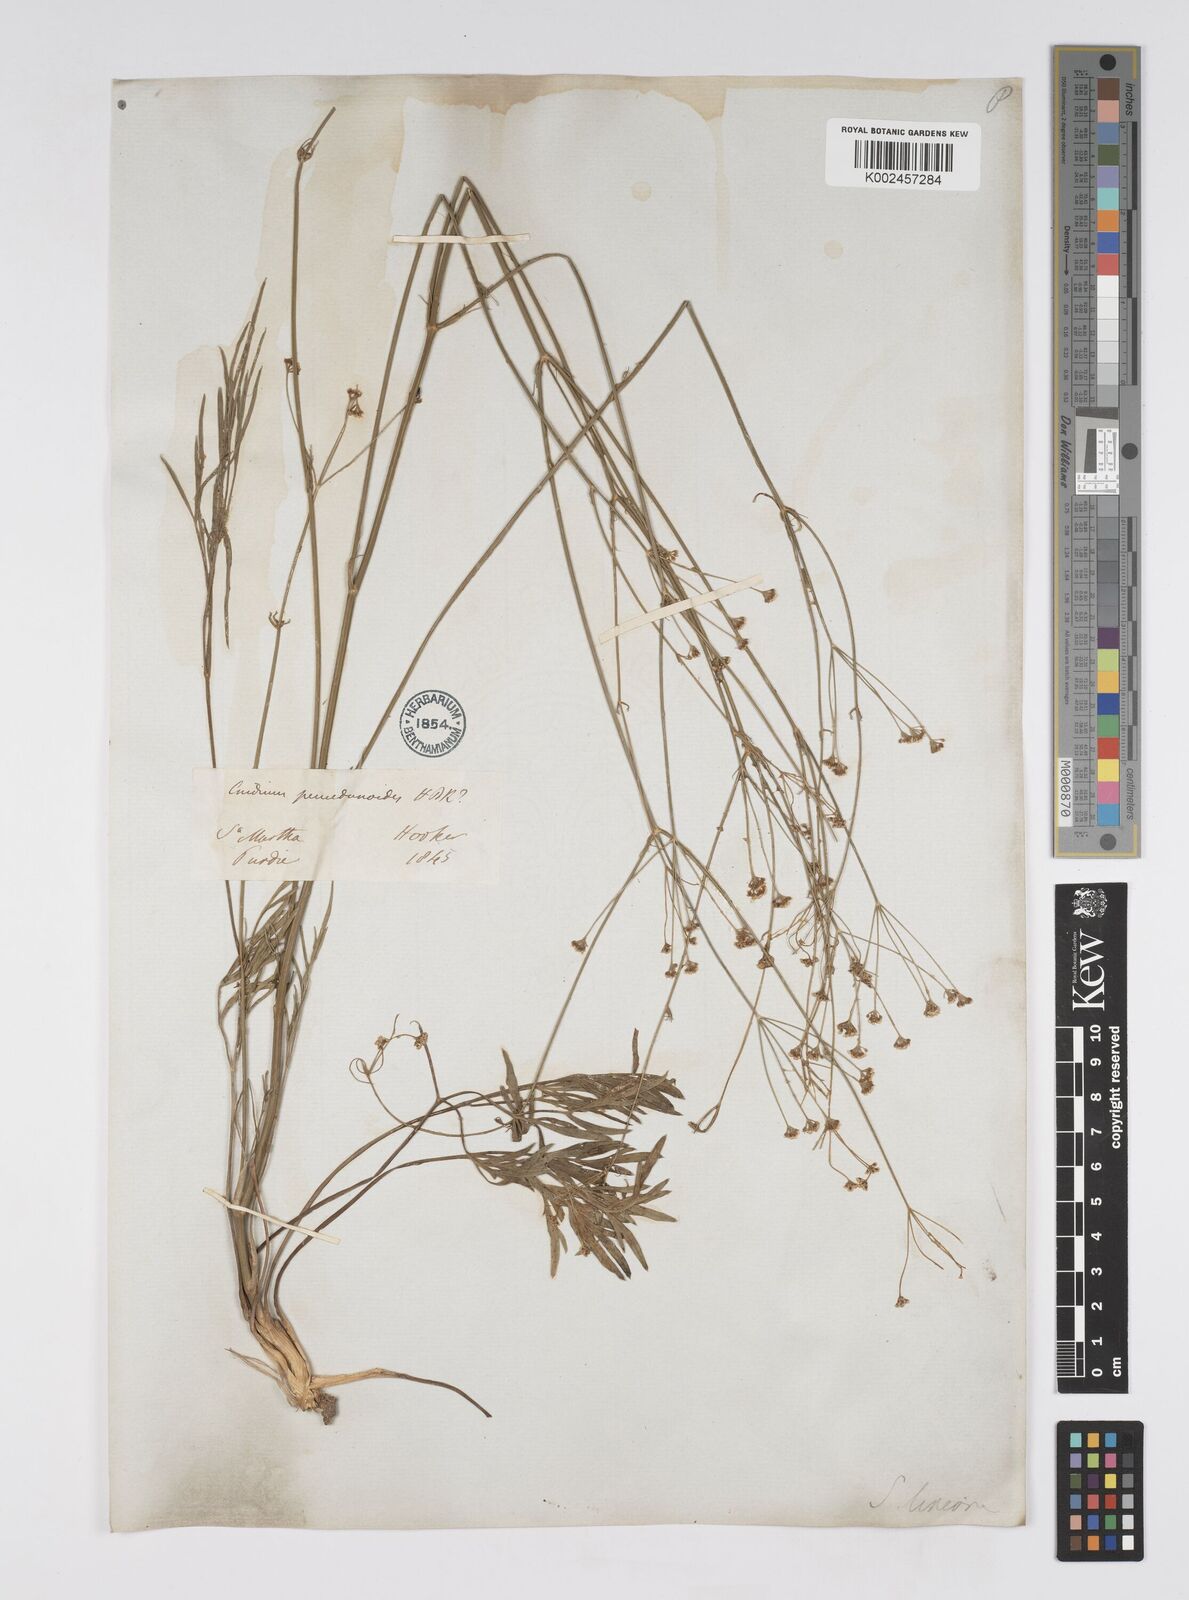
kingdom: Plantae
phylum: Tracheophyta
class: Magnoliopsida
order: Apiales
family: Apiaceae
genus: Donnellsmithia
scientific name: Donnellsmithia
